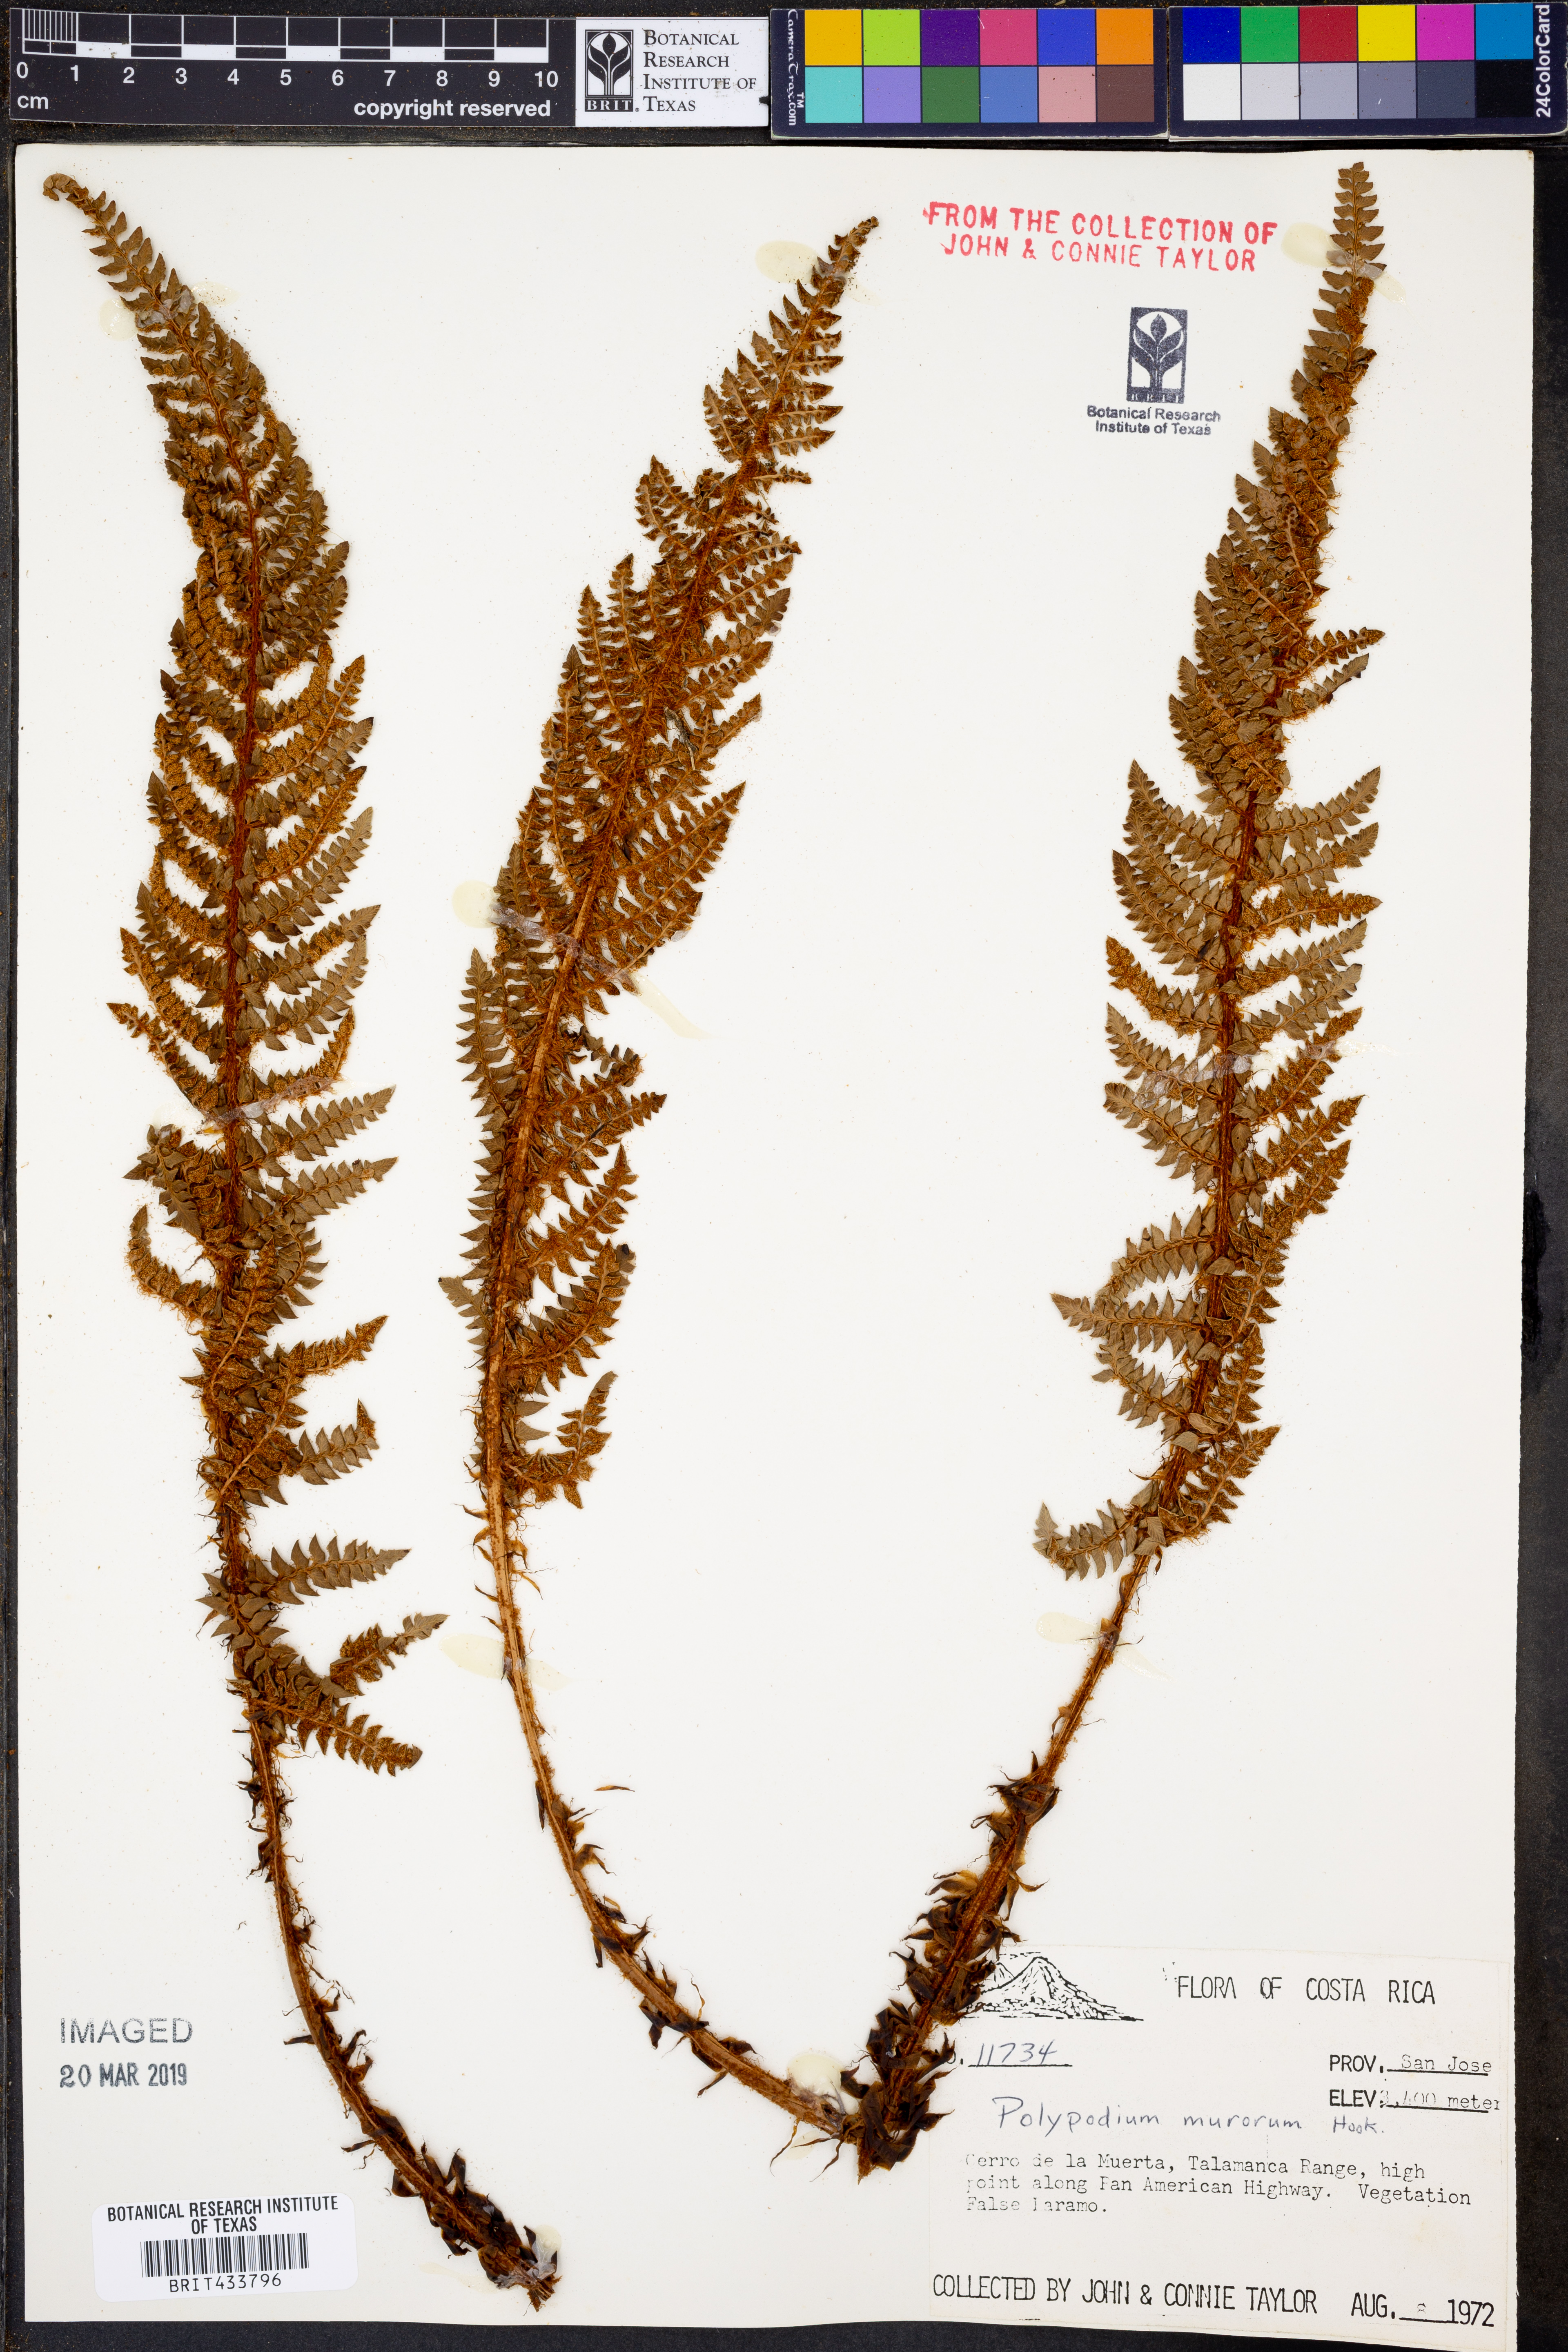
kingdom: Plantae
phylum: Tracheophyta
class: Polypodiopsida
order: Polypodiales
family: Polypodiaceae
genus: Pleopeltis
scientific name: Pleopeltis murora
